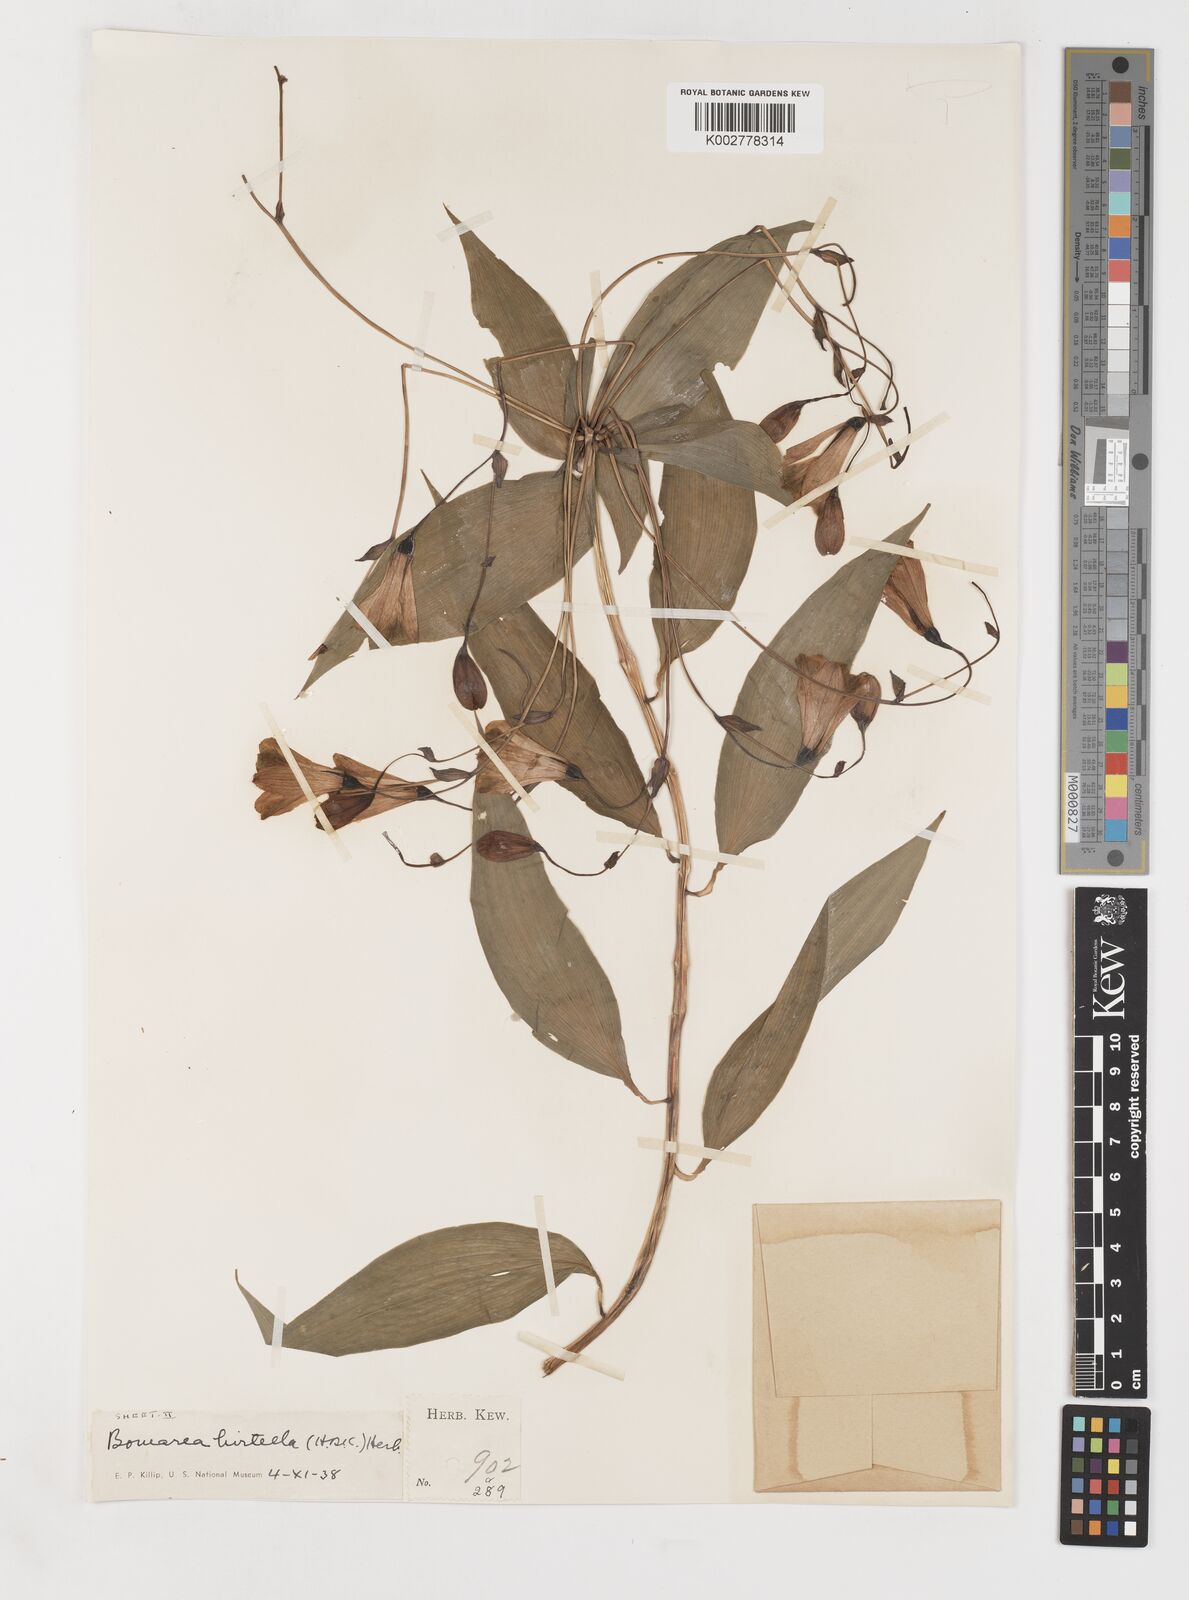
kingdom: Plantae
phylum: Tracheophyta
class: Liliopsida
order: Liliales
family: Alstroemeriaceae
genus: Bomarea
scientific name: Bomarea edulis
